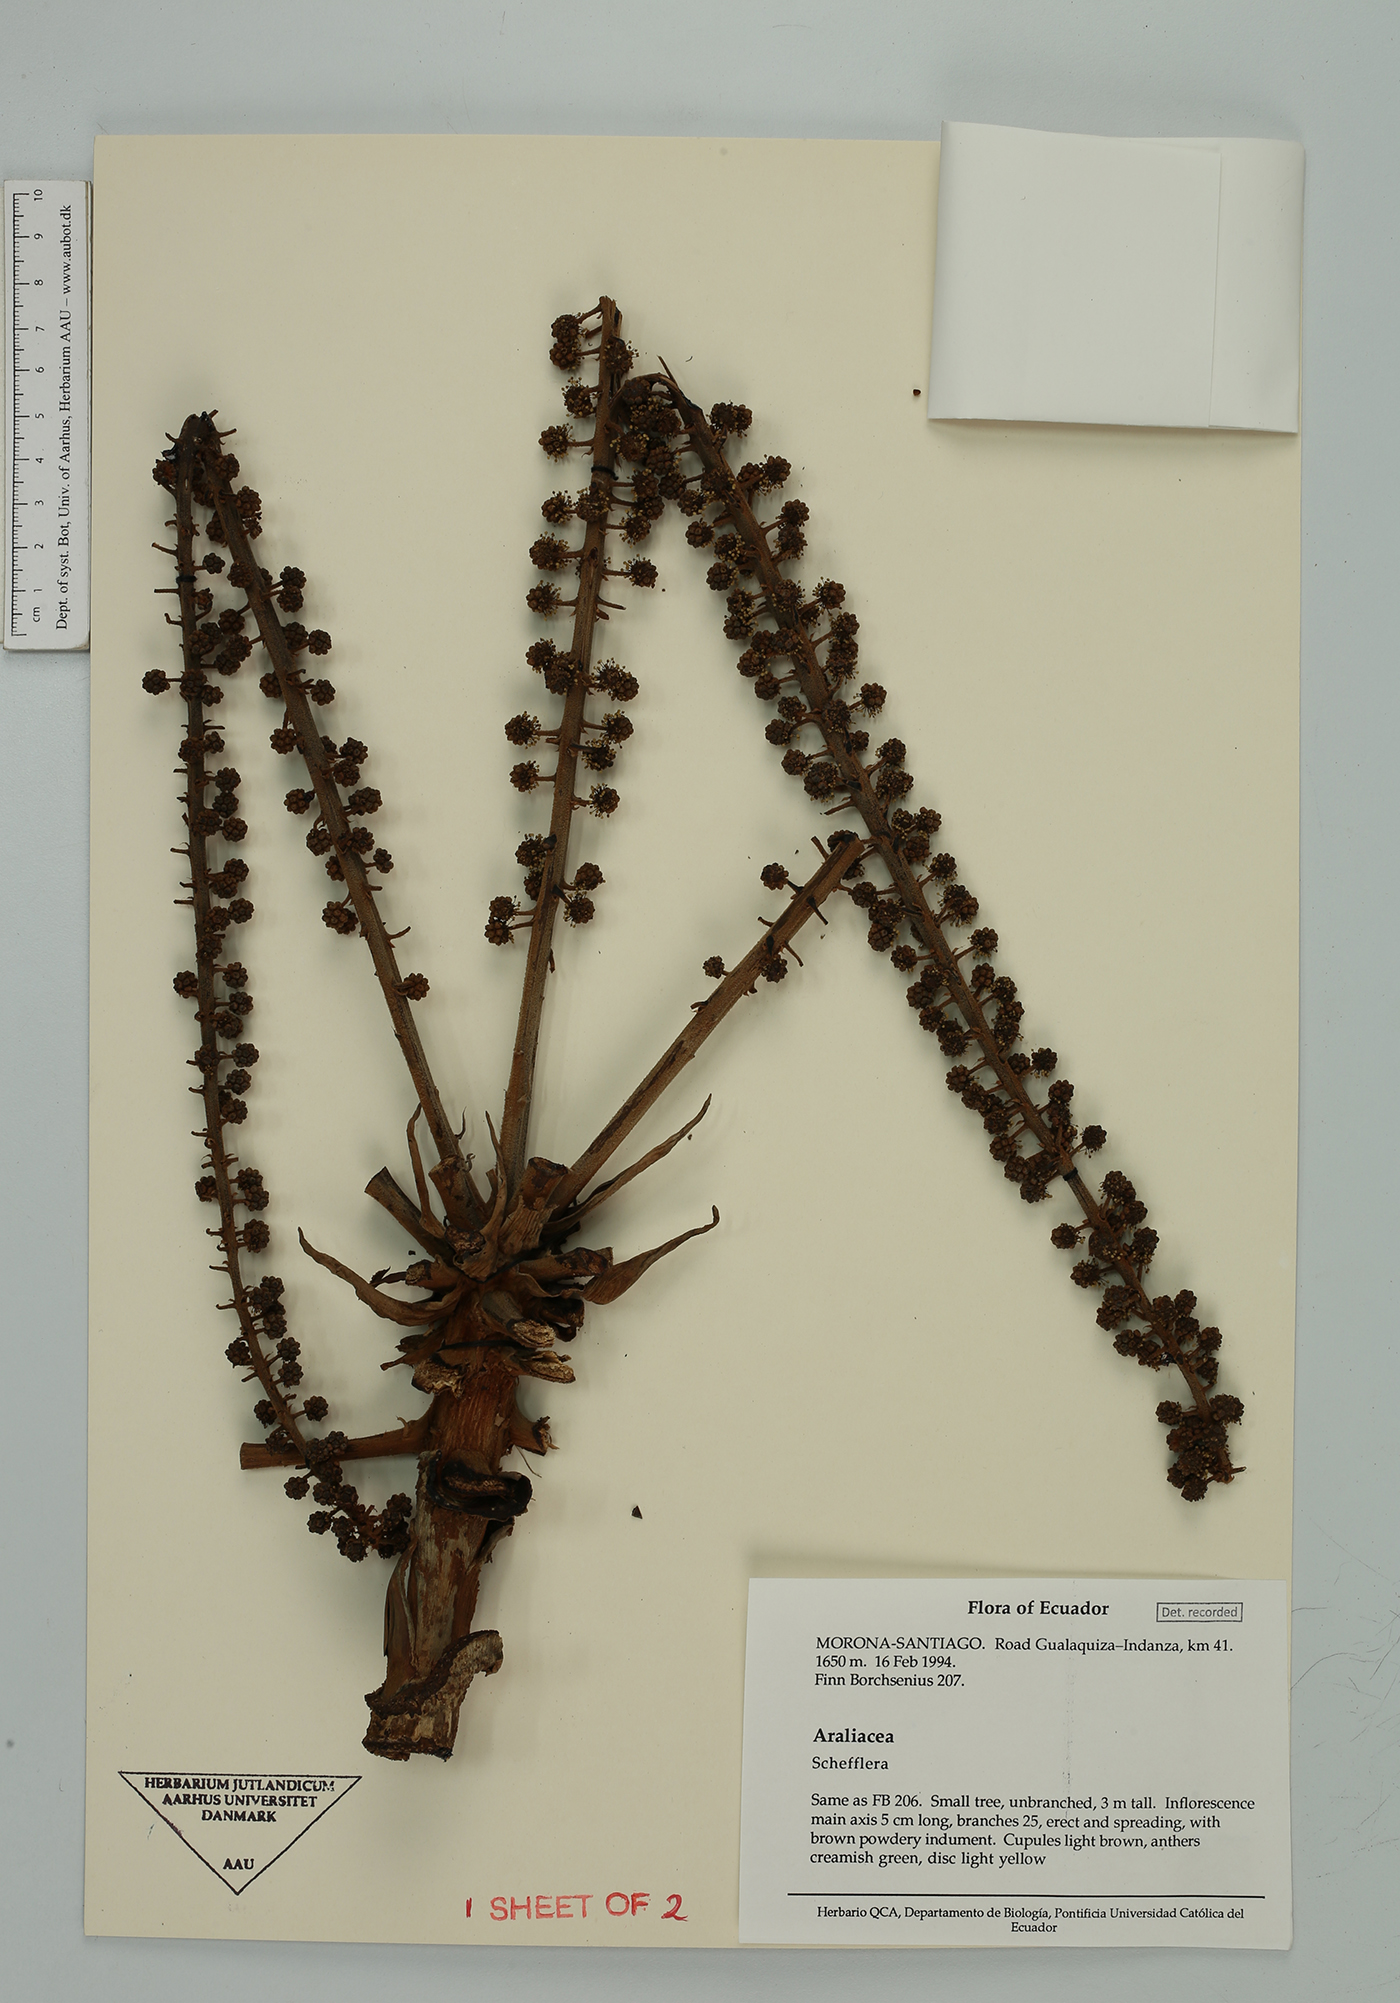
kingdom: Plantae
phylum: Tracheophyta
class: Magnoliopsida
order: Apiales
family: Araliaceae
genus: Sciodaphyllum
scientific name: Sciodaphyllum
